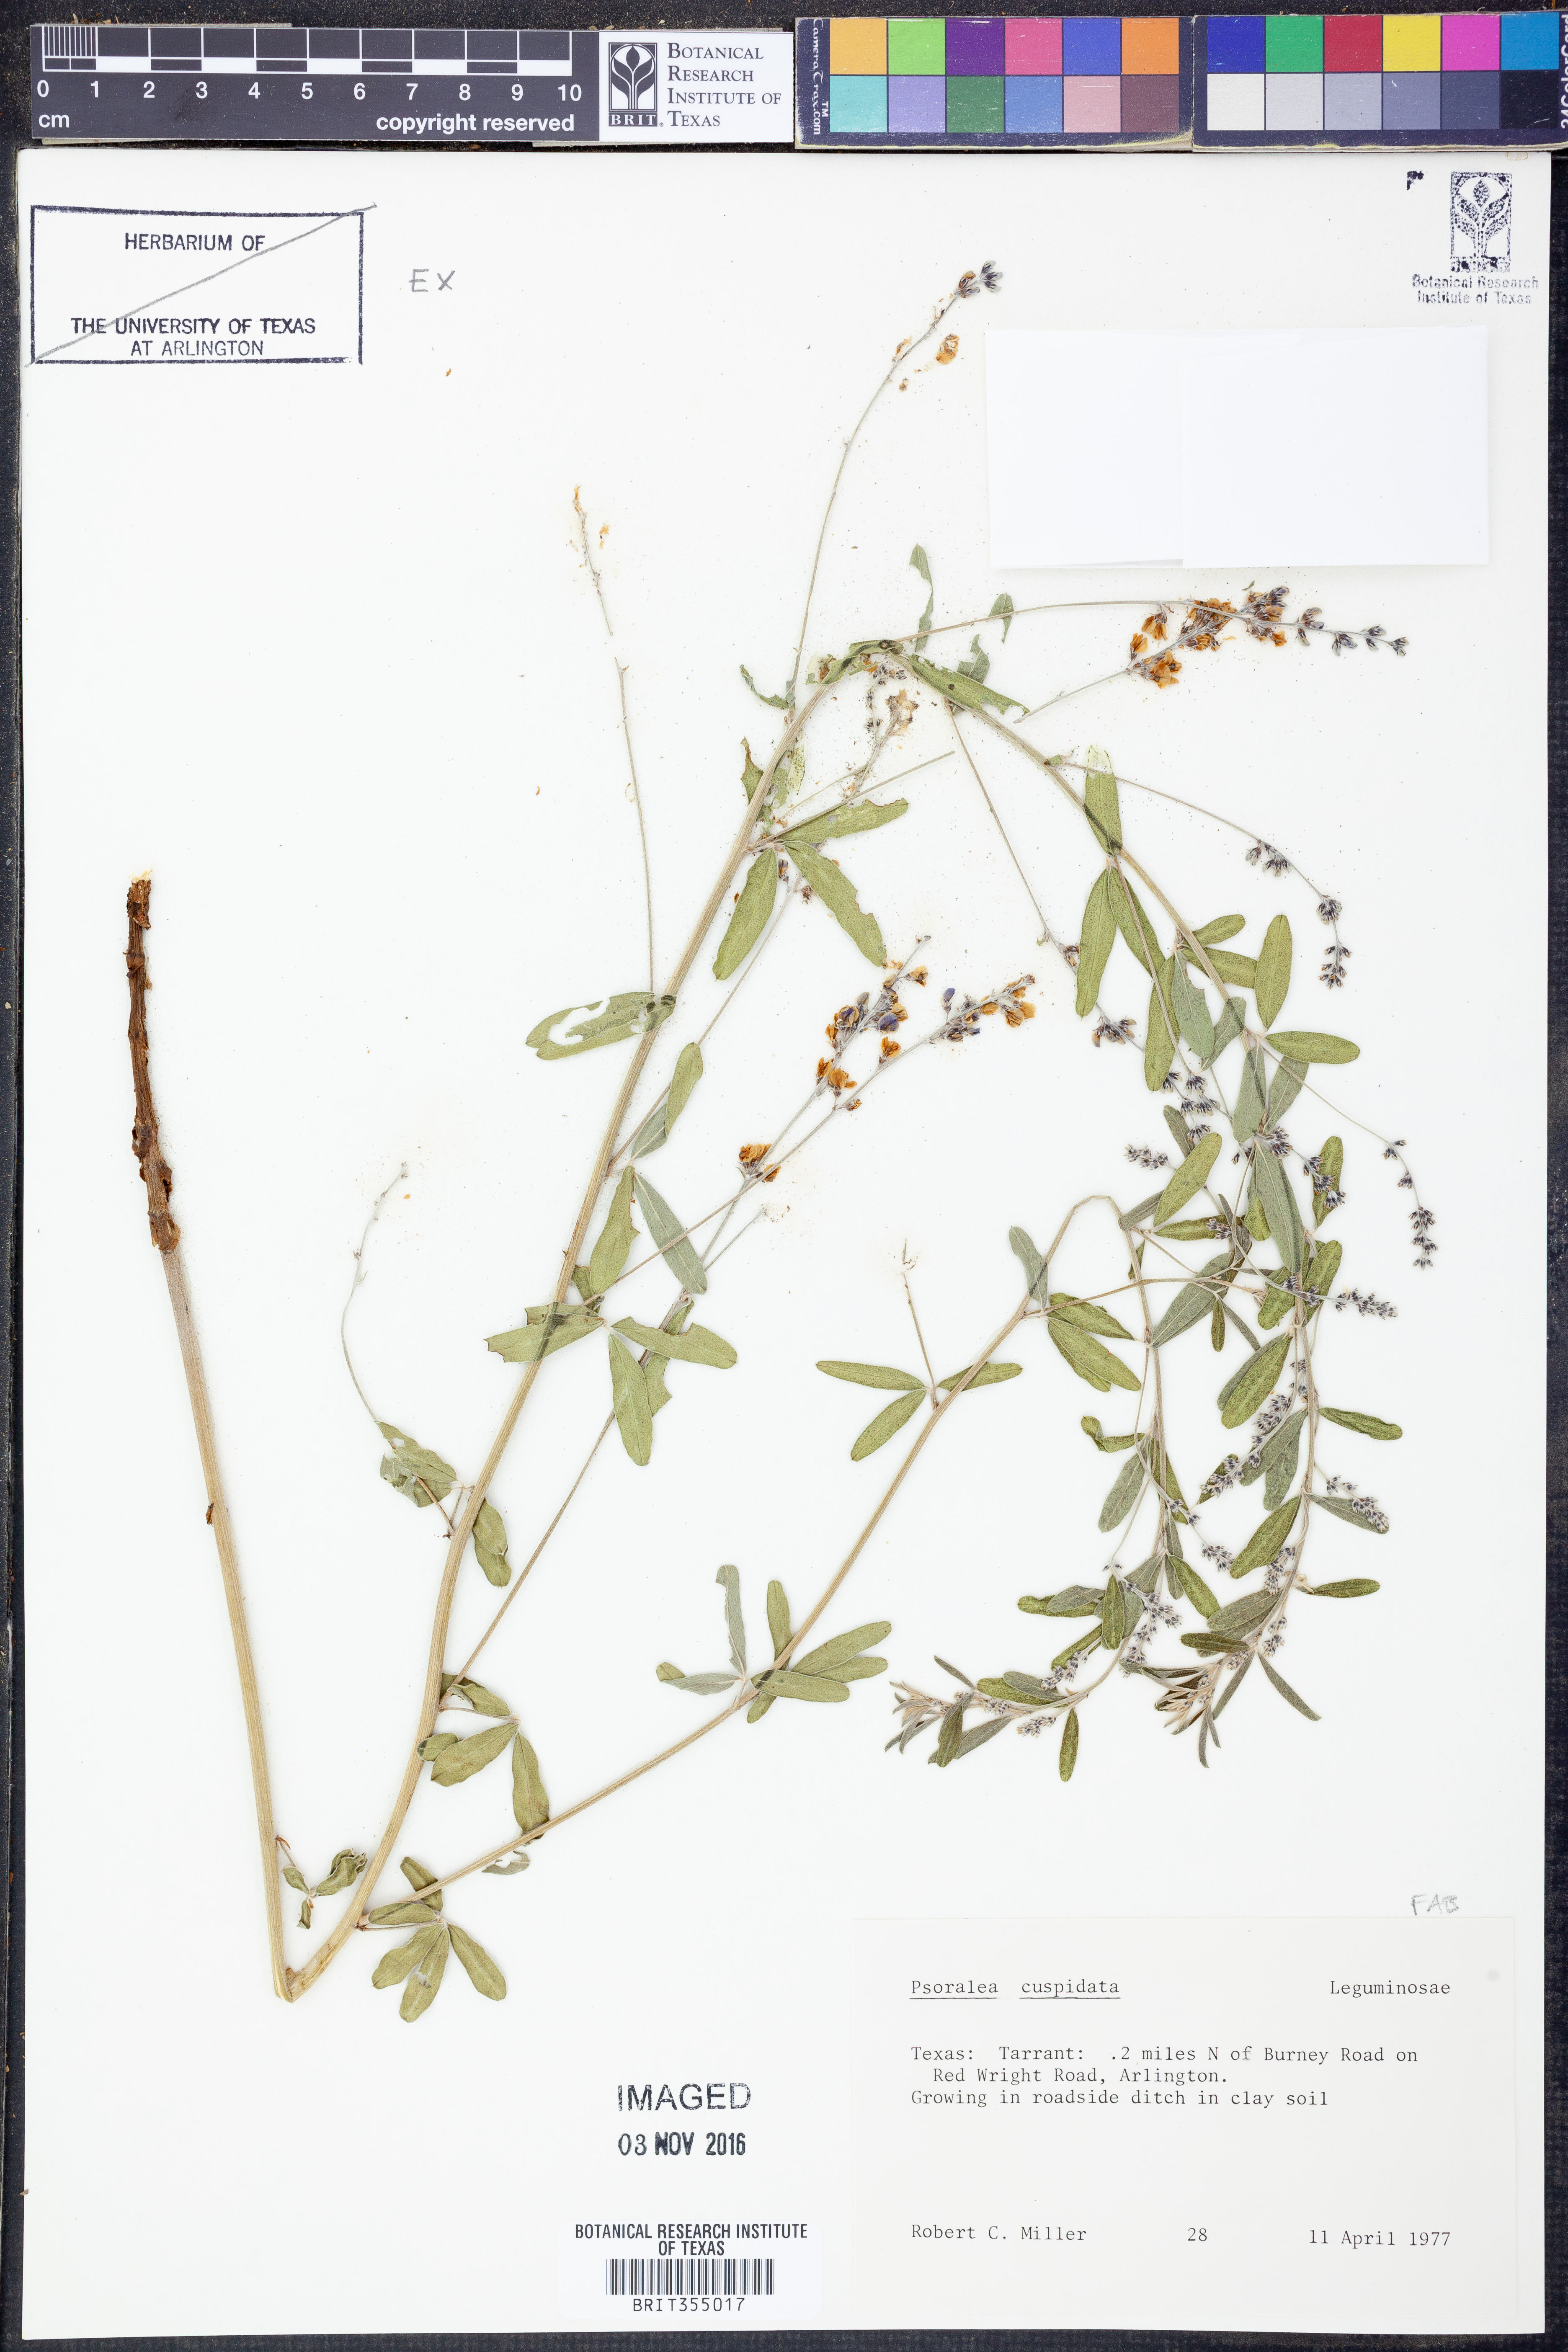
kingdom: Plantae
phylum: Tracheophyta
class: Magnoliopsida
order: Fabales
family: Fabaceae
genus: Pediomelum
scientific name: Pediomelum cuspidatum
